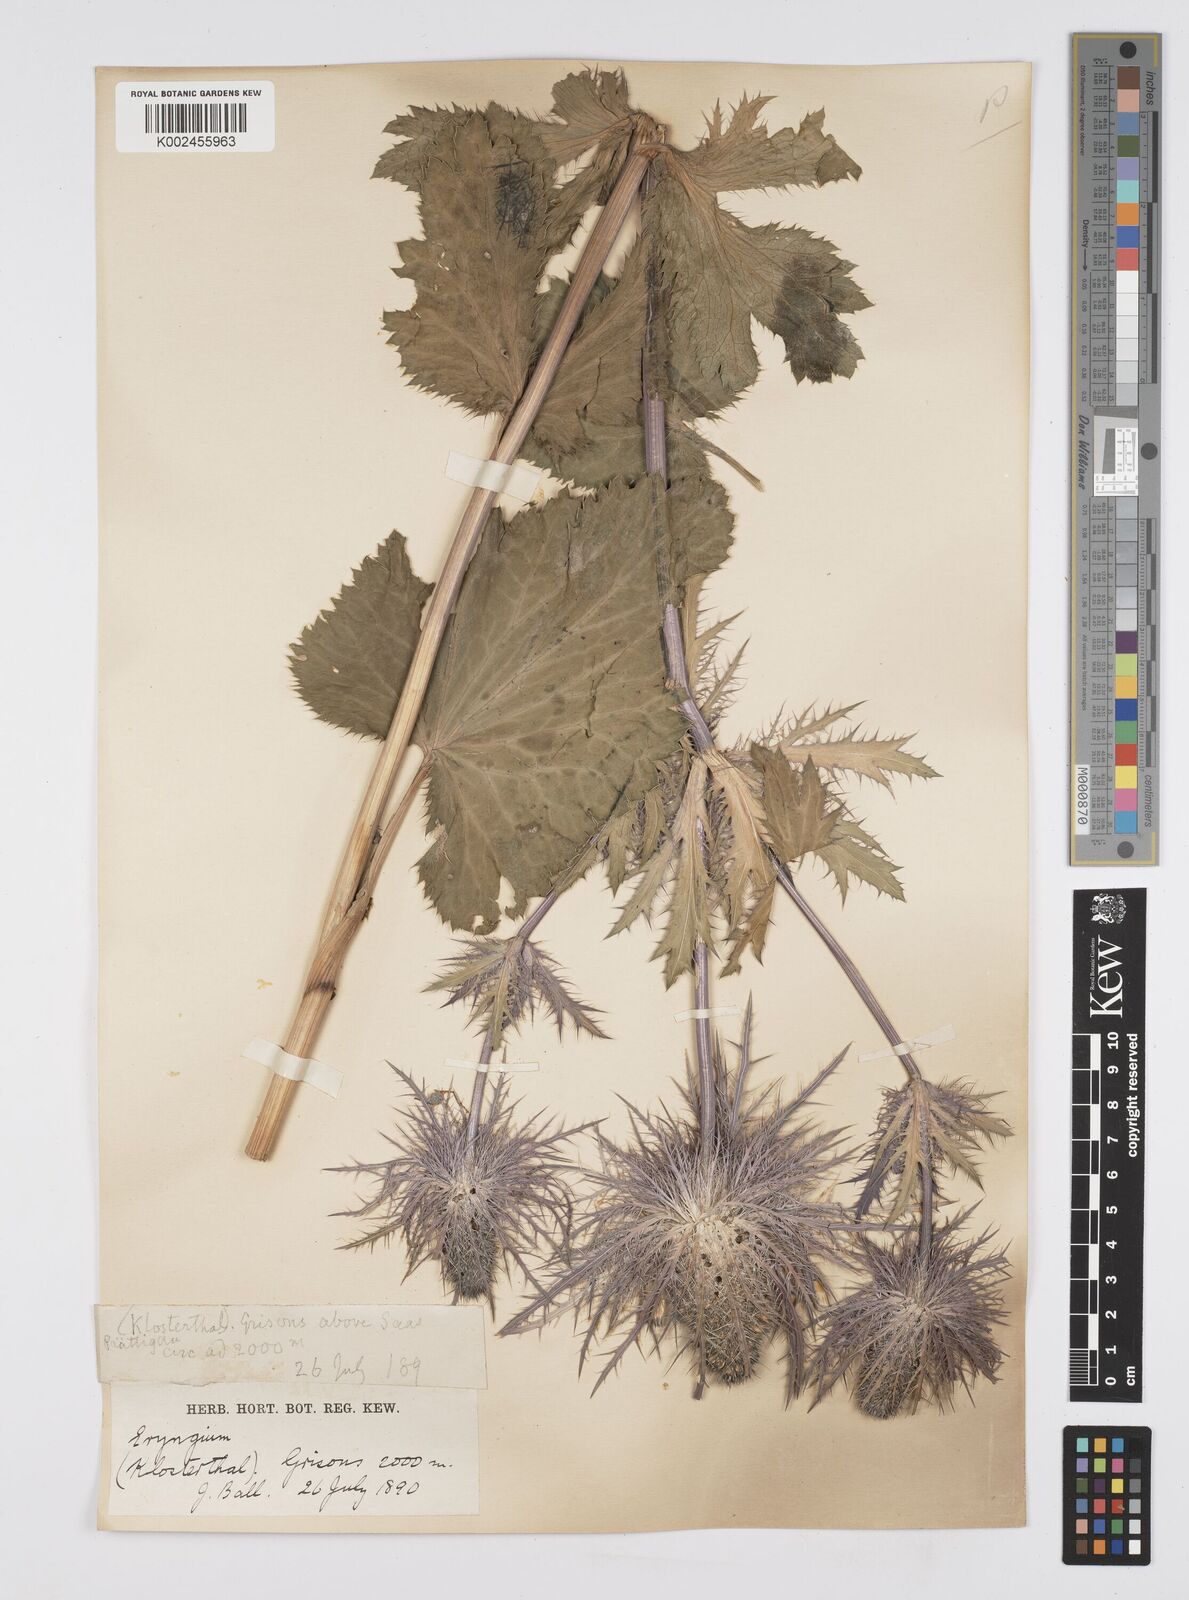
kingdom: Plantae
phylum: Tracheophyta
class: Magnoliopsida
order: Apiales
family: Apiaceae
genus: Eryngium
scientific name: Eryngium alpinum
